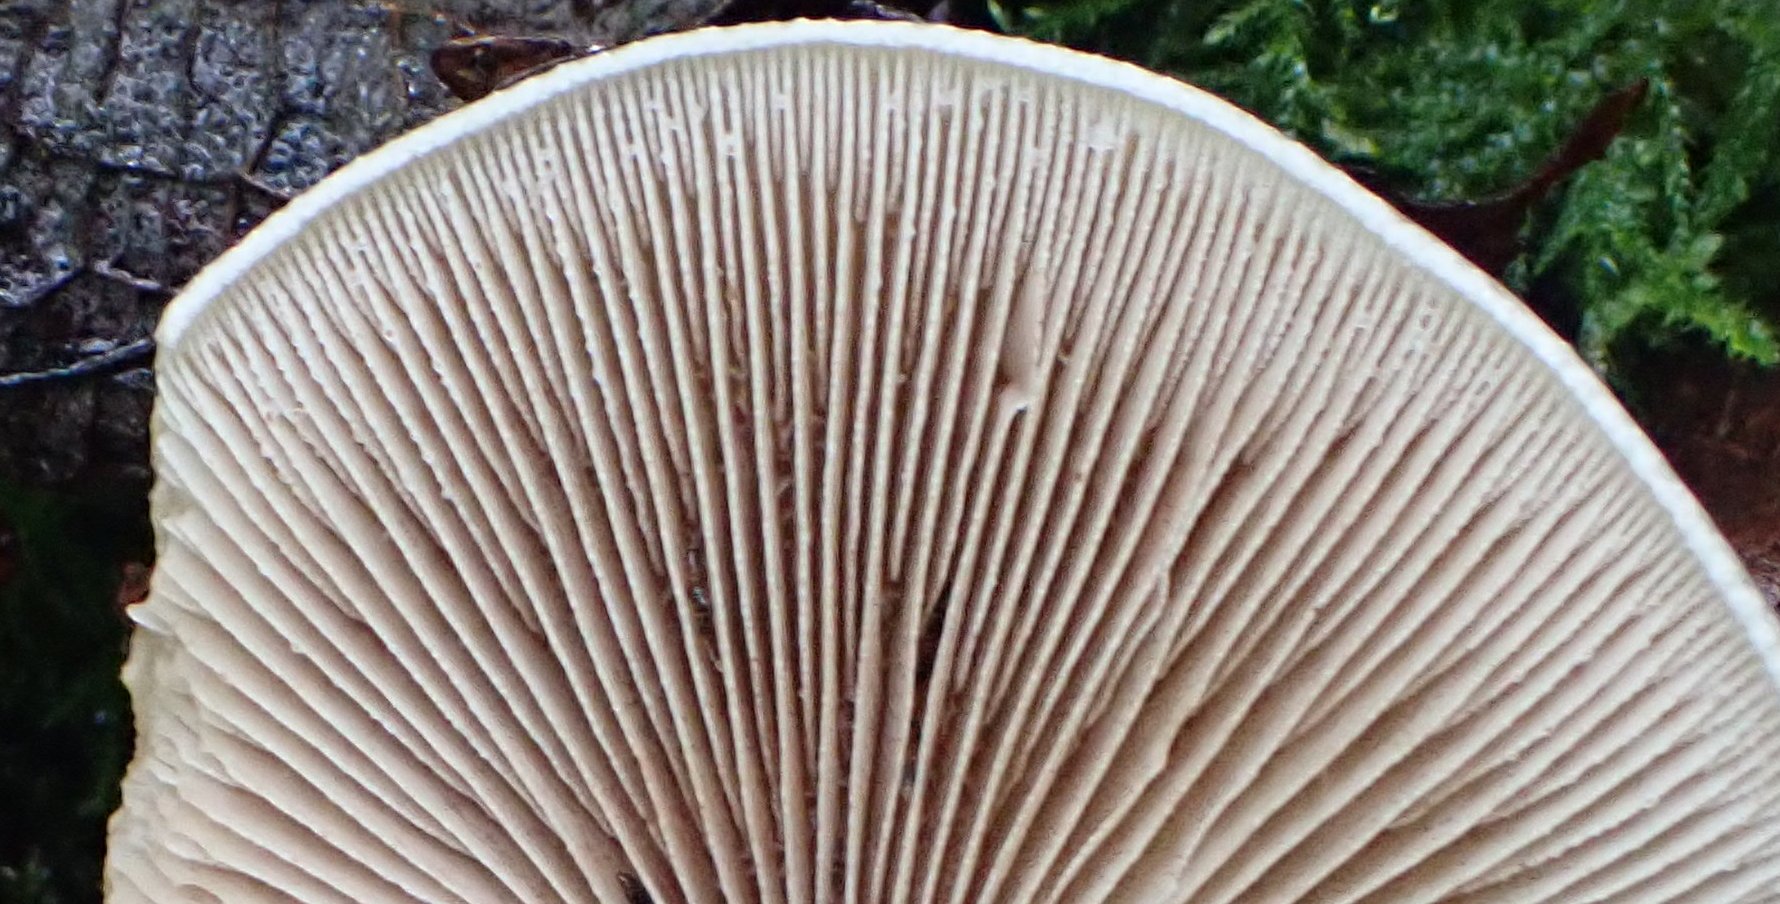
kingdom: Fungi
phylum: Basidiomycota
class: Agaricomycetes
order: Agaricales
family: Hymenogastraceae
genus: Hebeloma
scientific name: Hebeloma
